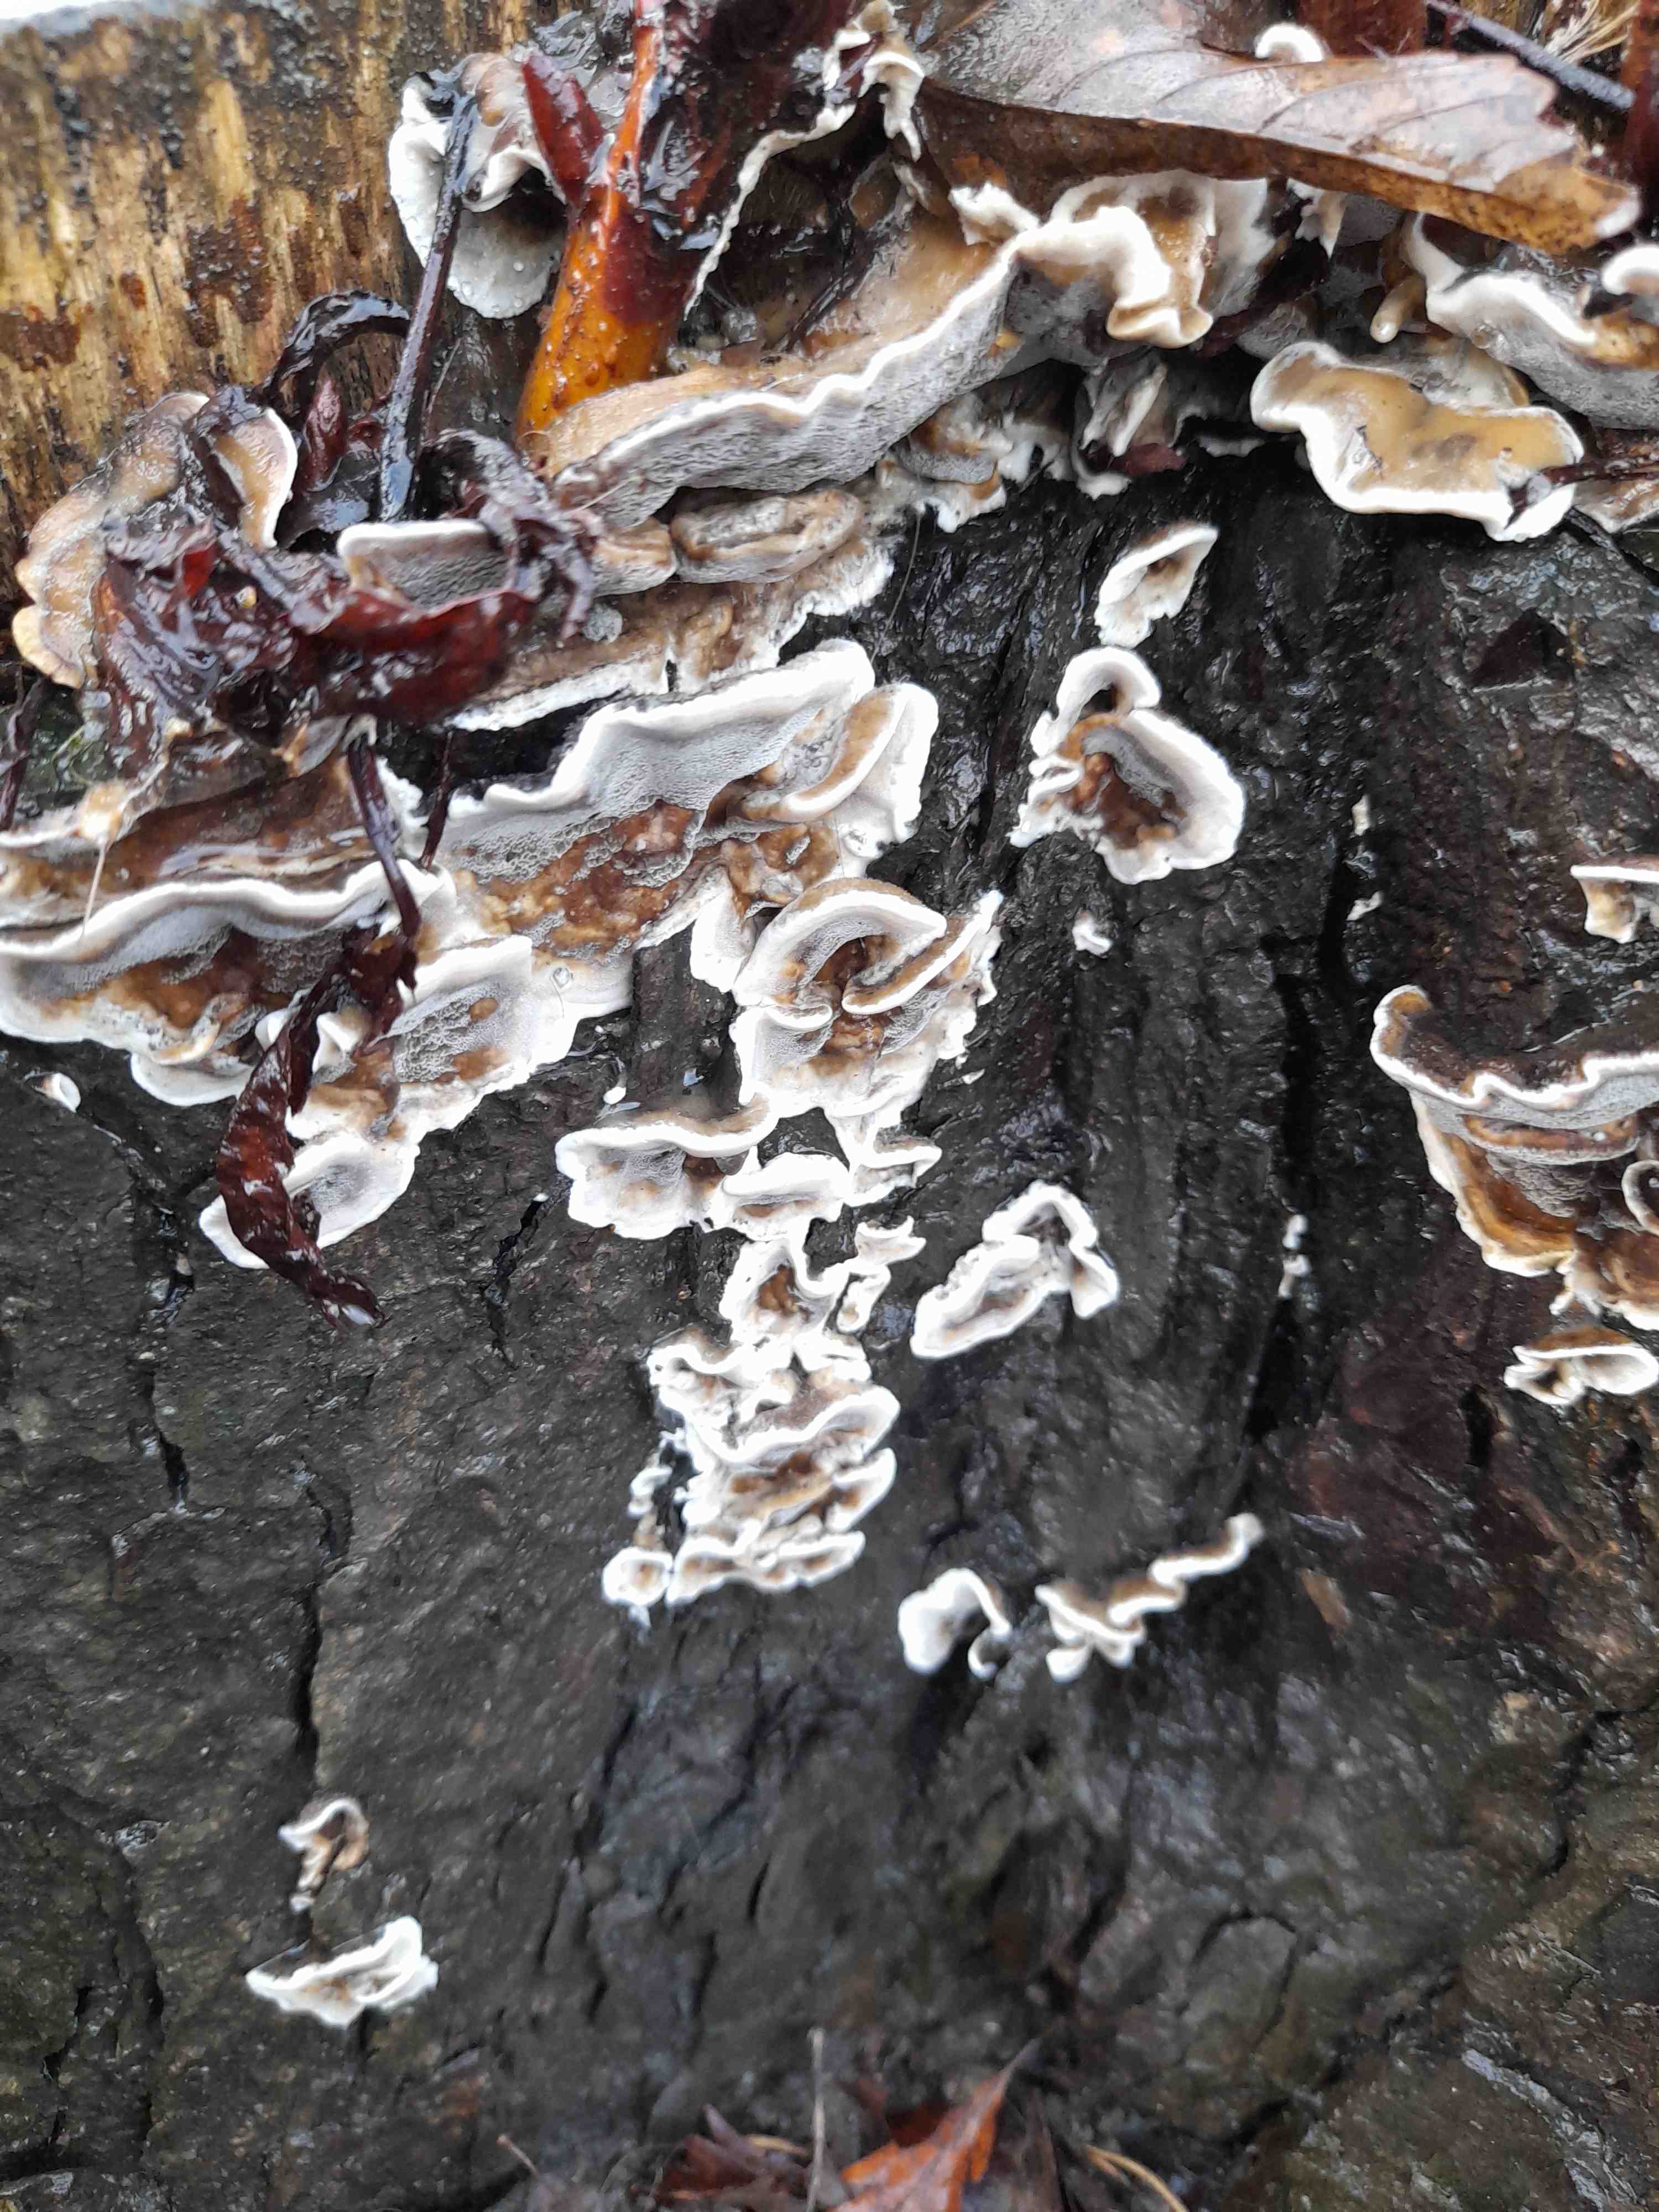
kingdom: Fungi
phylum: Basidiomycota
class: Agaricomycetes
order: Polyporales
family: Phanerochaetaceae
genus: Bjerkandera
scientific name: Bjerkandera adusta
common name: sveden sodporesvamp
